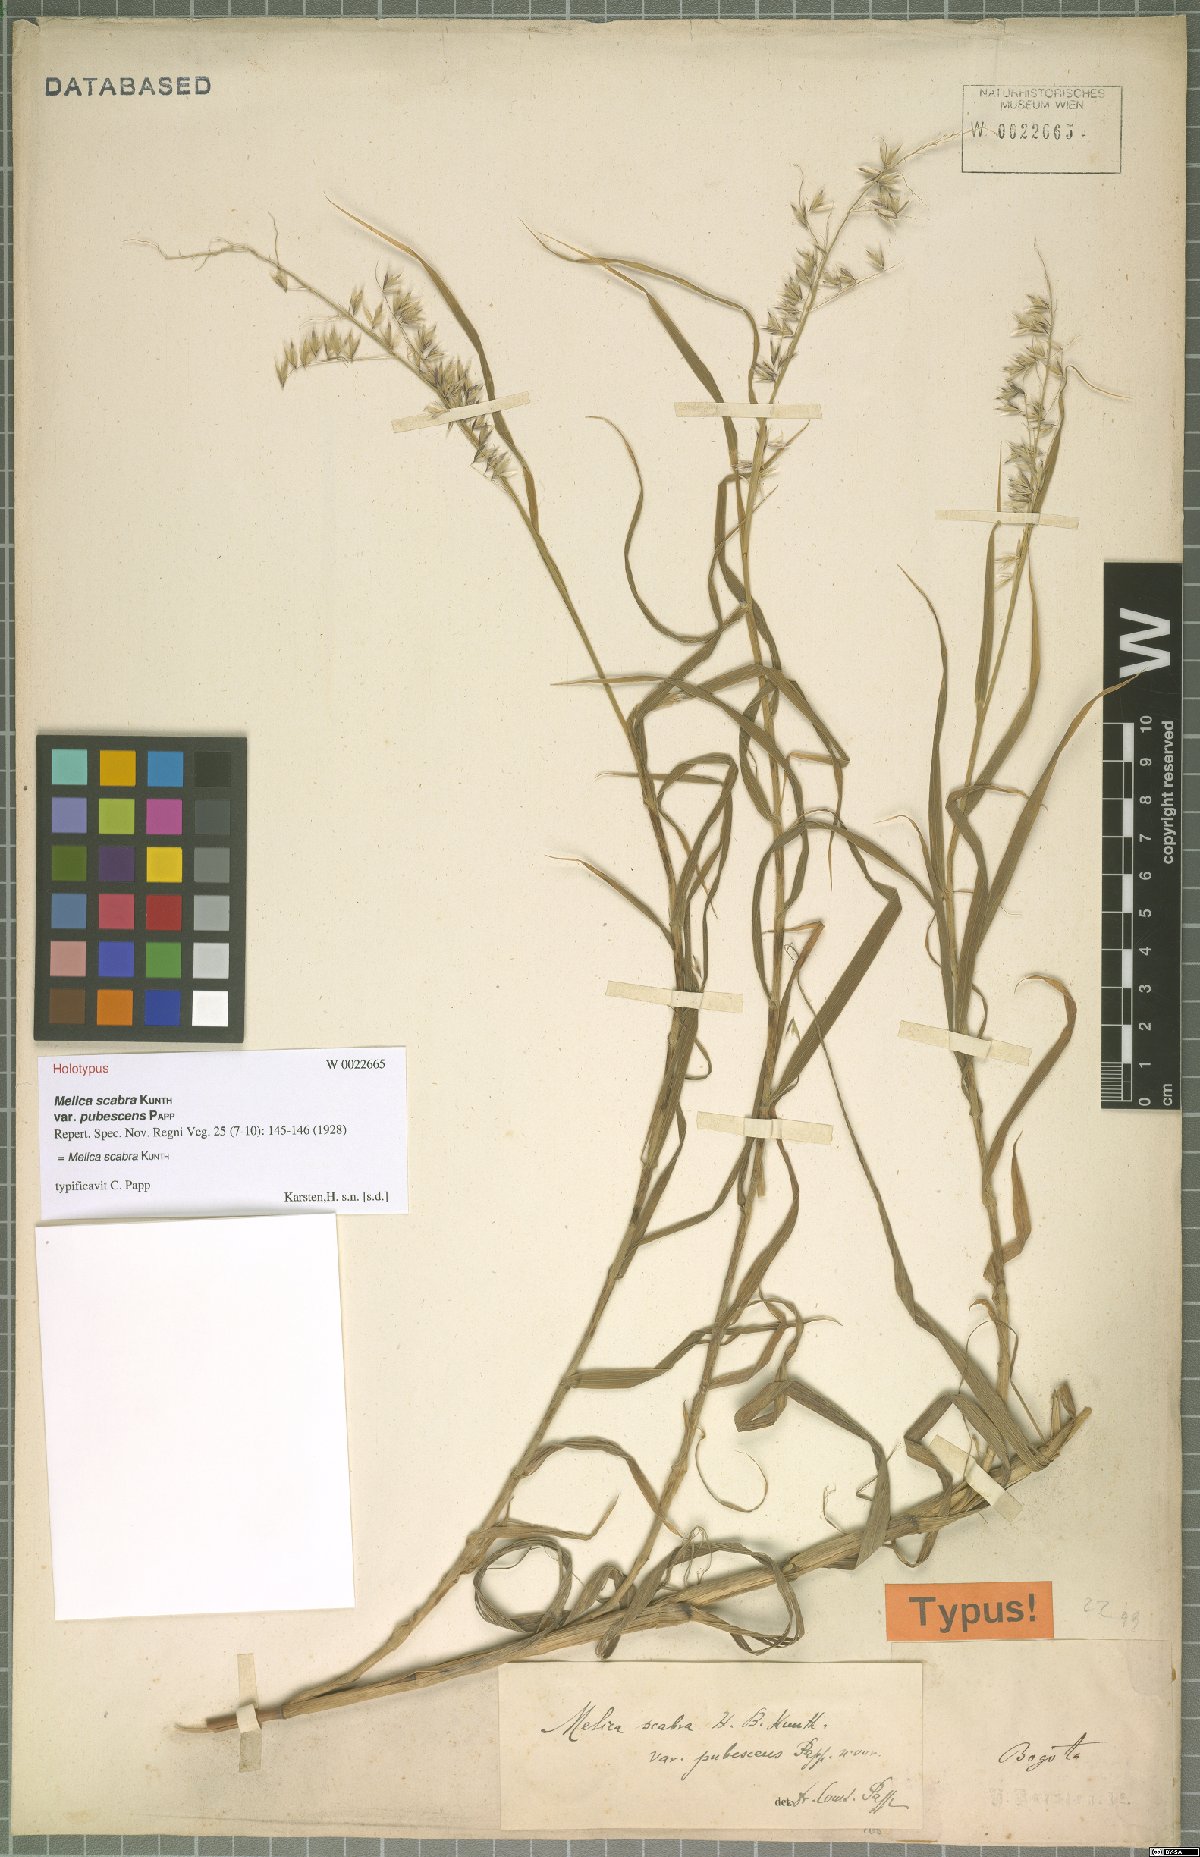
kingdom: Plantae
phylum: Tracheophyta
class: Liliopsida
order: Poales
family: Poaceae
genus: Melica
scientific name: Melica scabra
